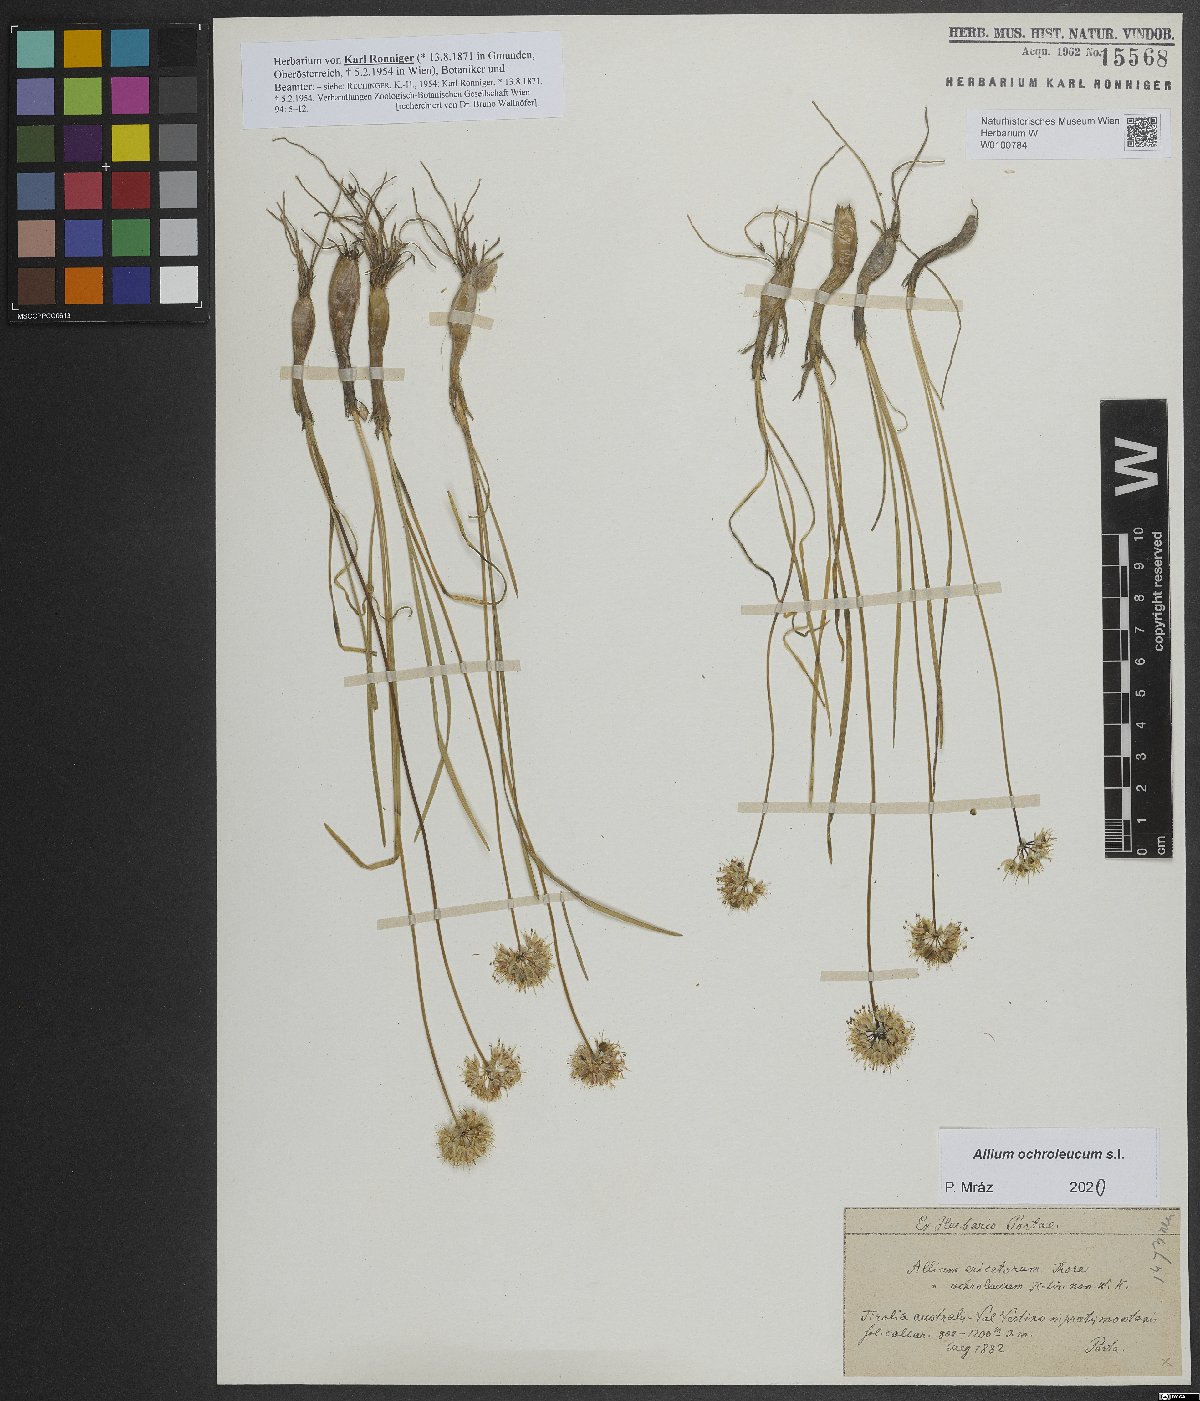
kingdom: Plantae
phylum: Tracheophyta
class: Liliopsida
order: Asparagales
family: Amaryllidaceae
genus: Allium
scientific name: Allium ericetorum
